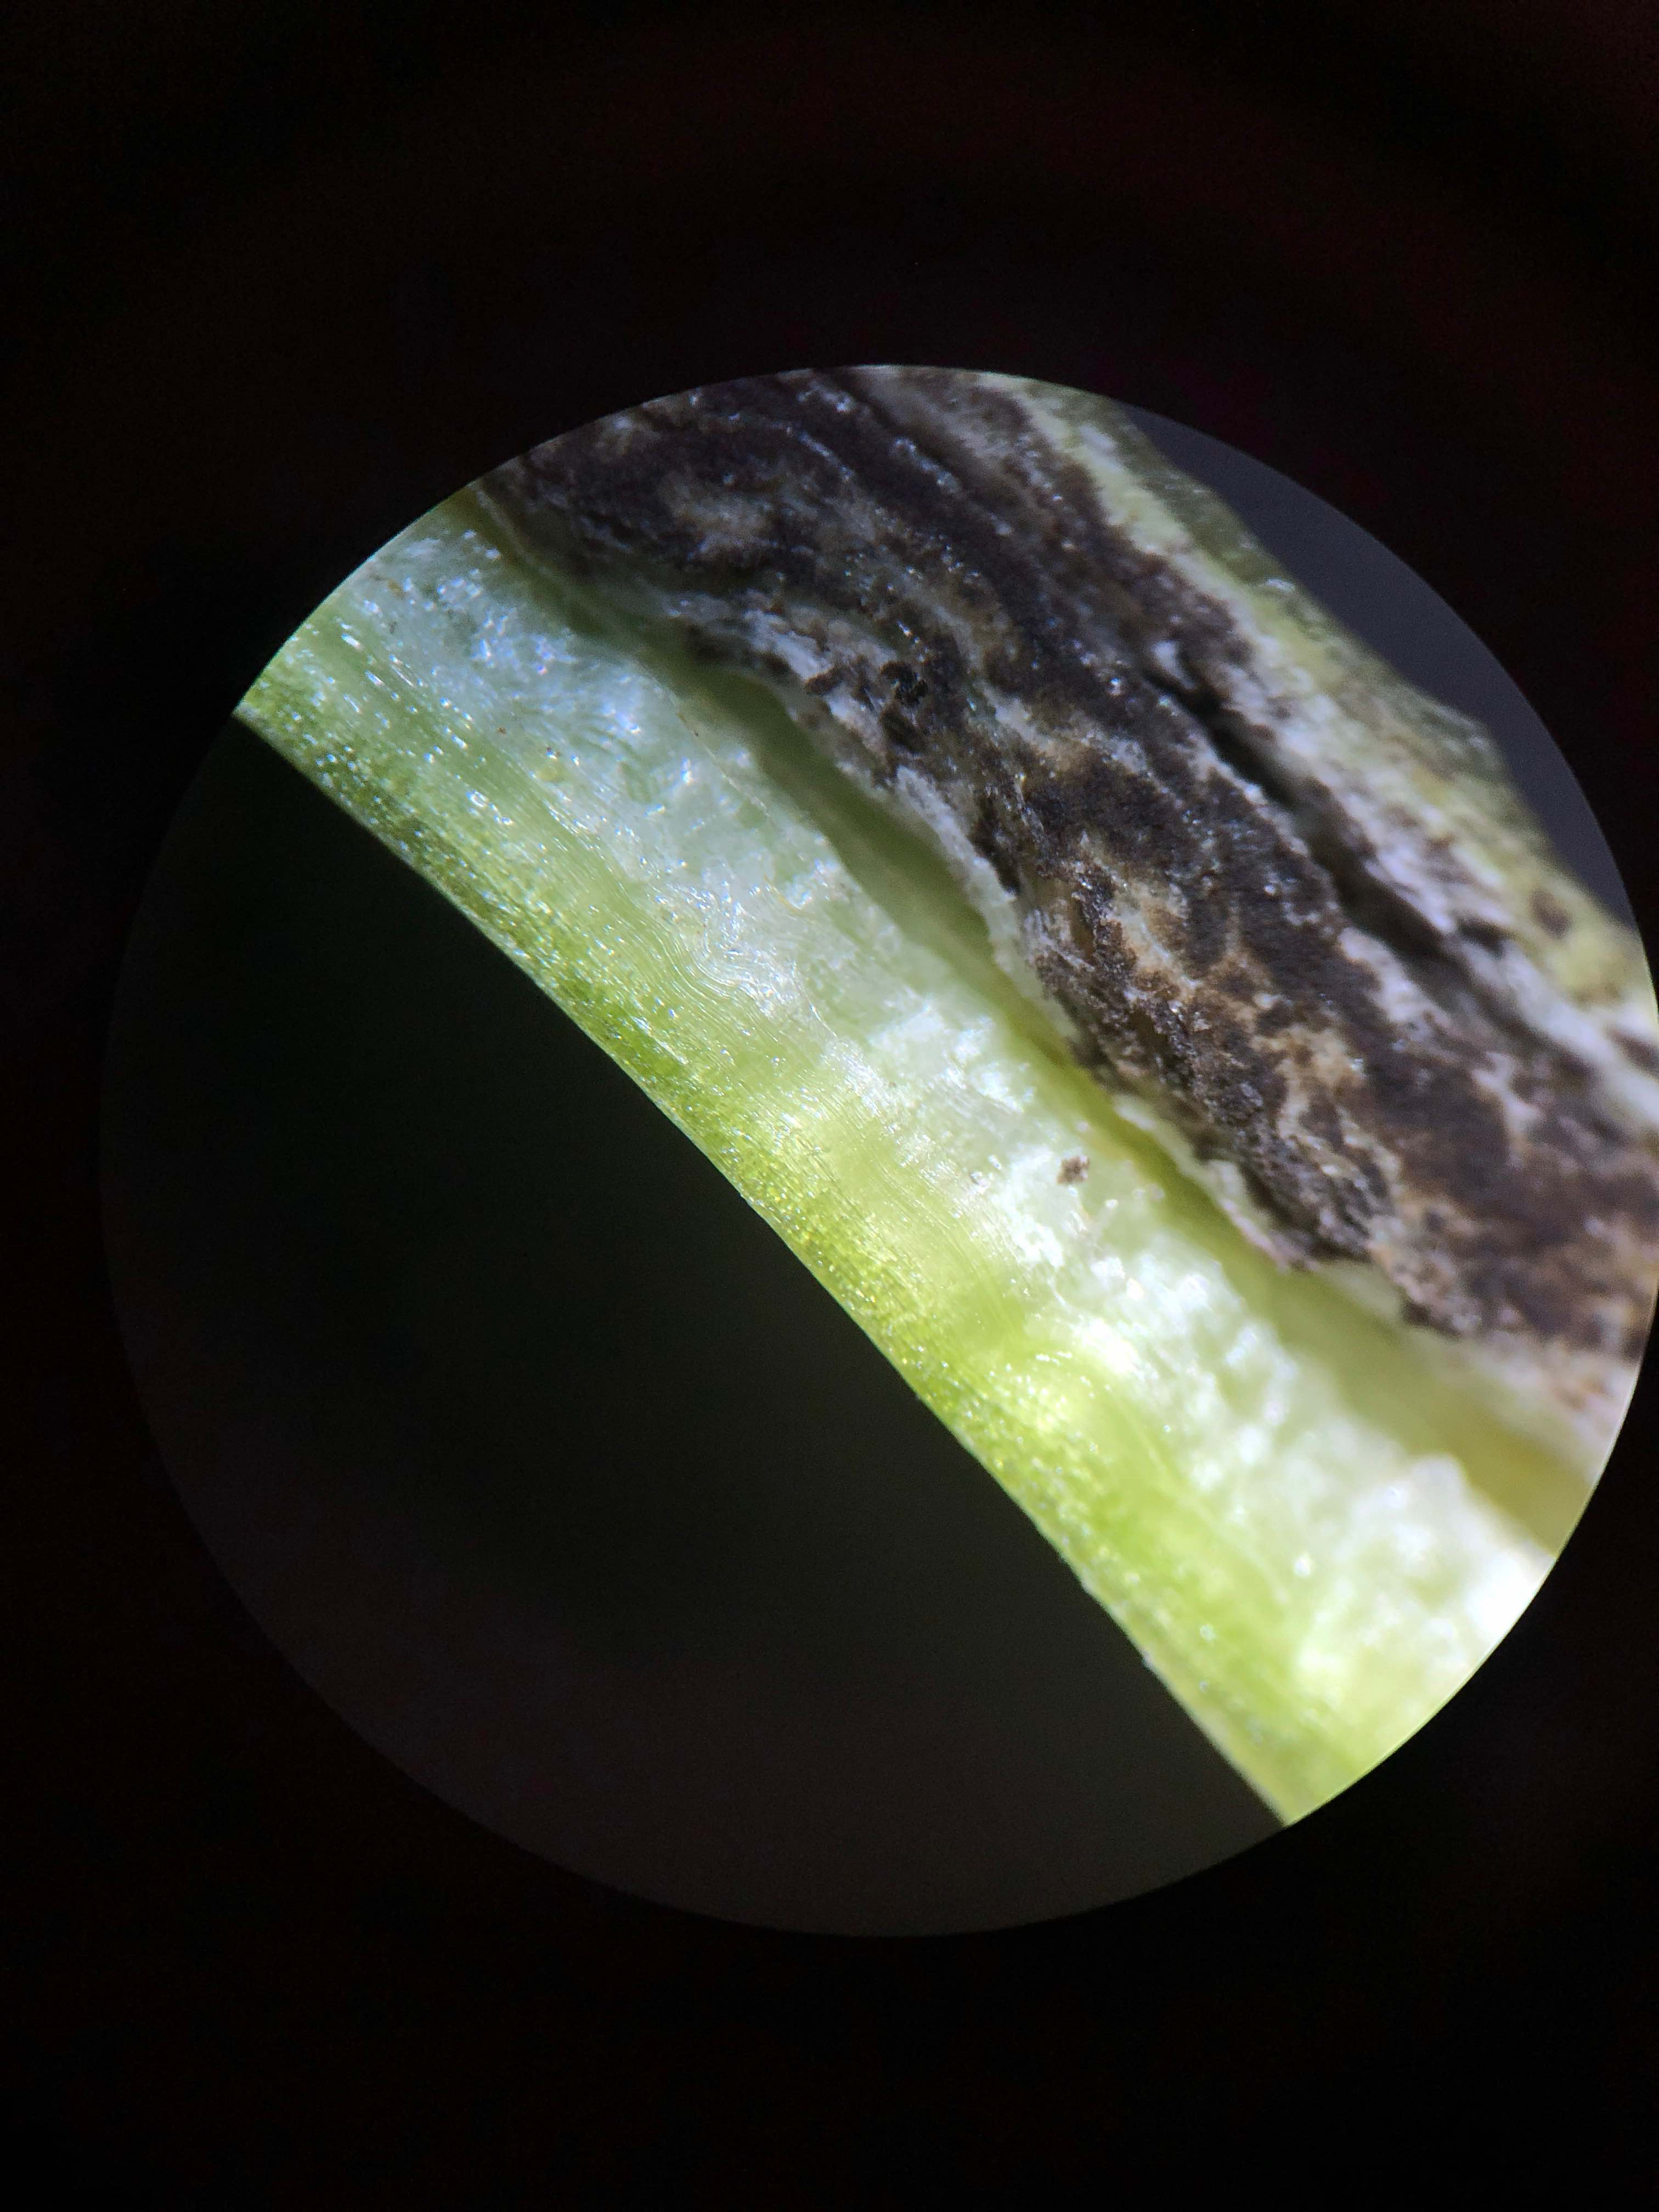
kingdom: Fungi
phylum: Basidiomycota
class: Ustilaginomycetes
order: Urocystidales
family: Urocystidaceae
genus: Urocystis
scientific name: Urocystis eranthidis
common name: erantis-brand
